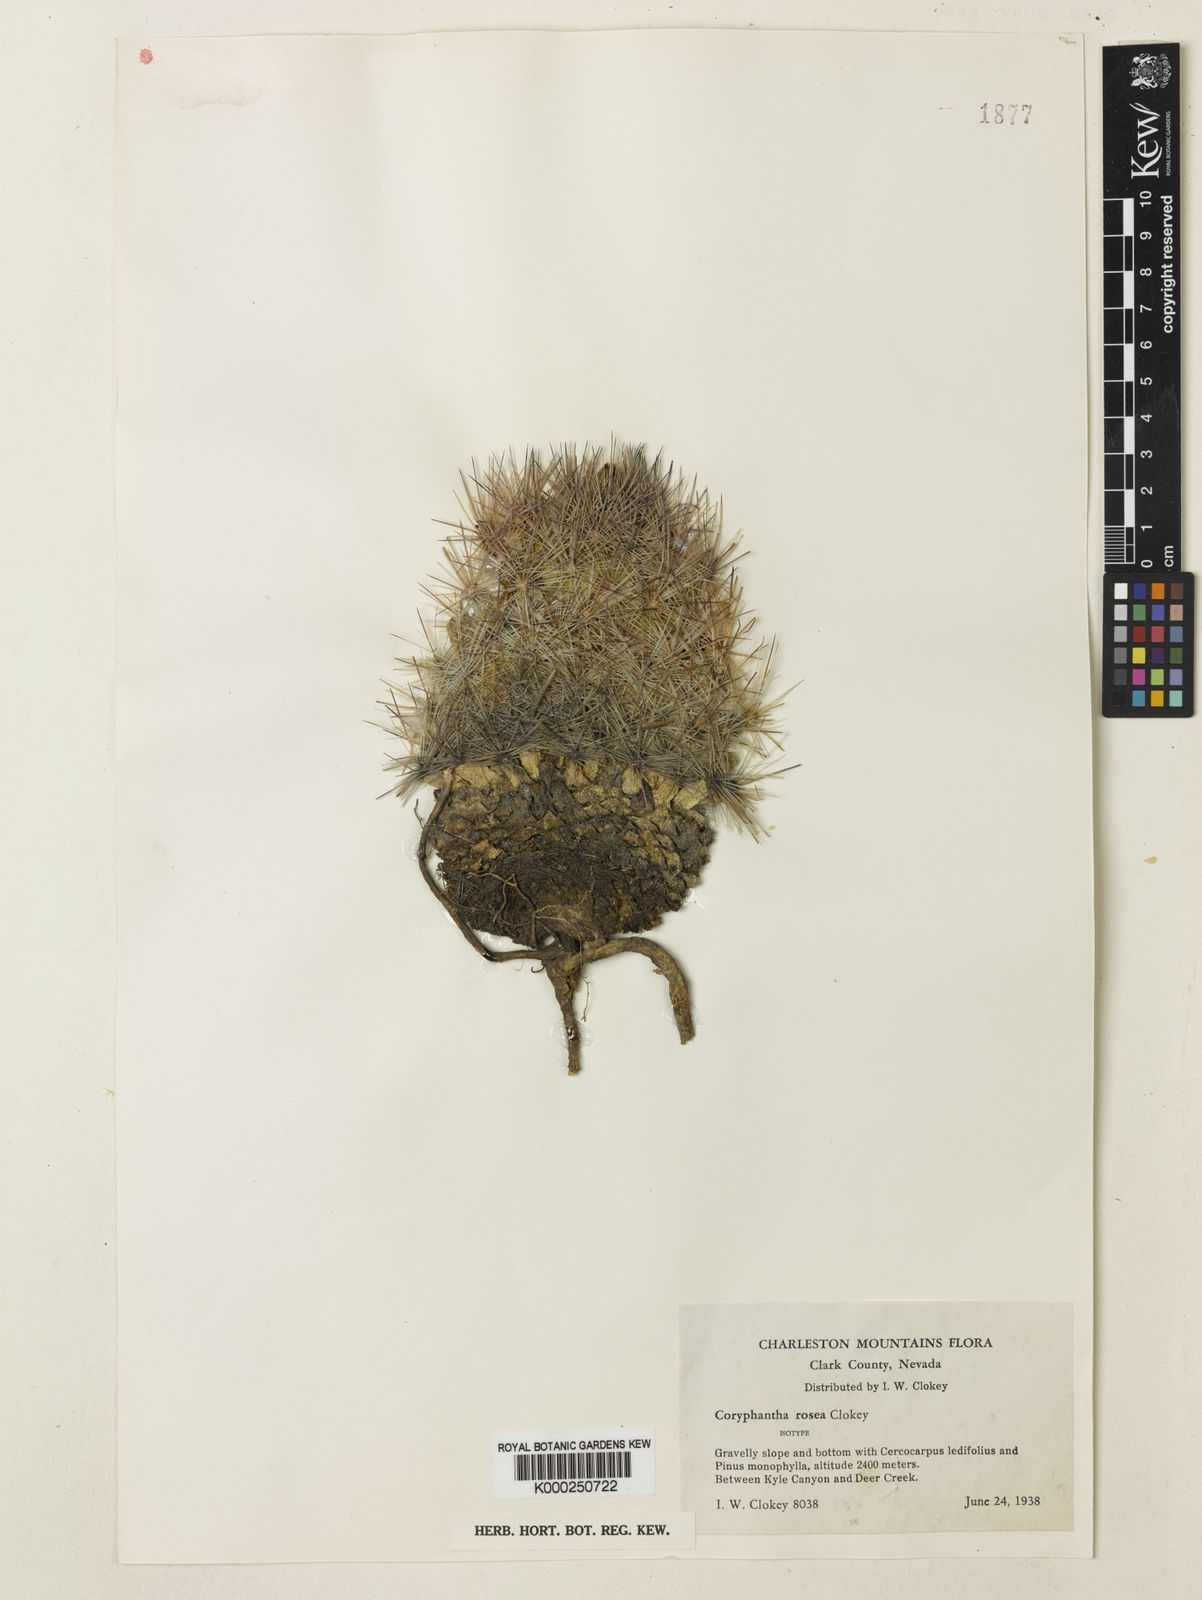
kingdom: Plantae
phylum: Tracheophyta
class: Magnoliopsida
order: Caryophyllales
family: Cactaceae
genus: Pelecyphora
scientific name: Pelecyphora vivipara
